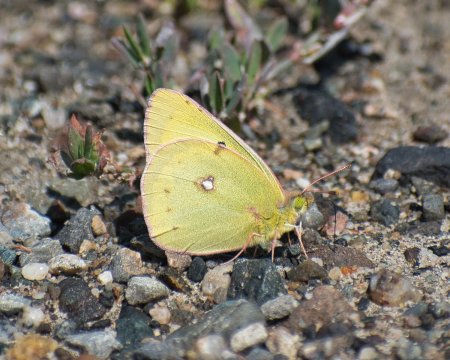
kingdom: Animalia
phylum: Arthropoda
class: Insecta
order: Lepidoptera
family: Pieridae
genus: Colias
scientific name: Colias philodice
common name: Clouded Sulphur
